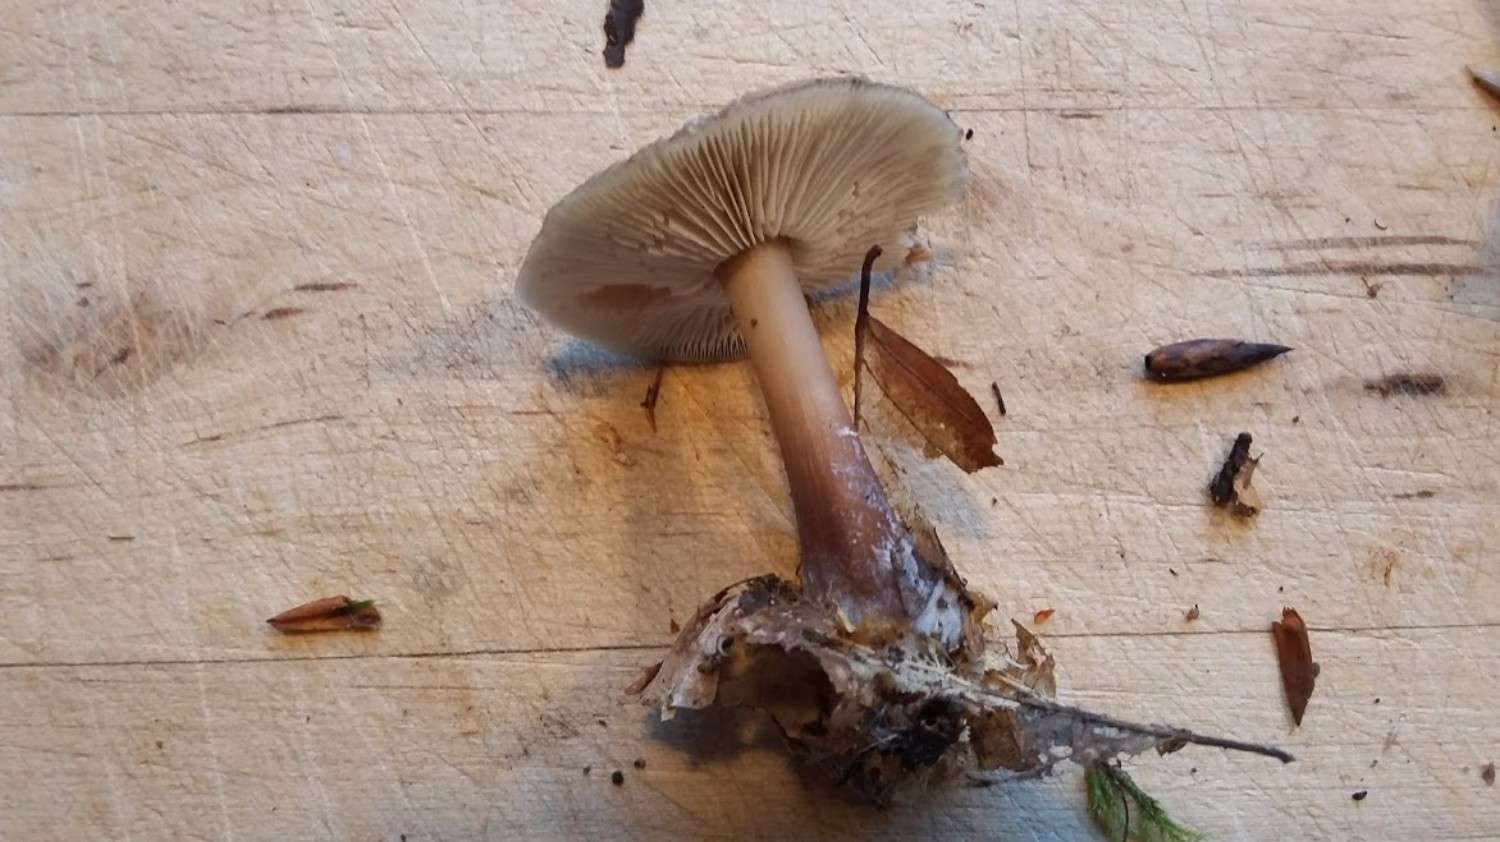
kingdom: Fungi
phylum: Basidiomycota
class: Agaricomycetes
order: Agaricales
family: Omphalotaceae
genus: Rhodocollybia
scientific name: Rhodocollybia asema
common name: horngrå fladhat
